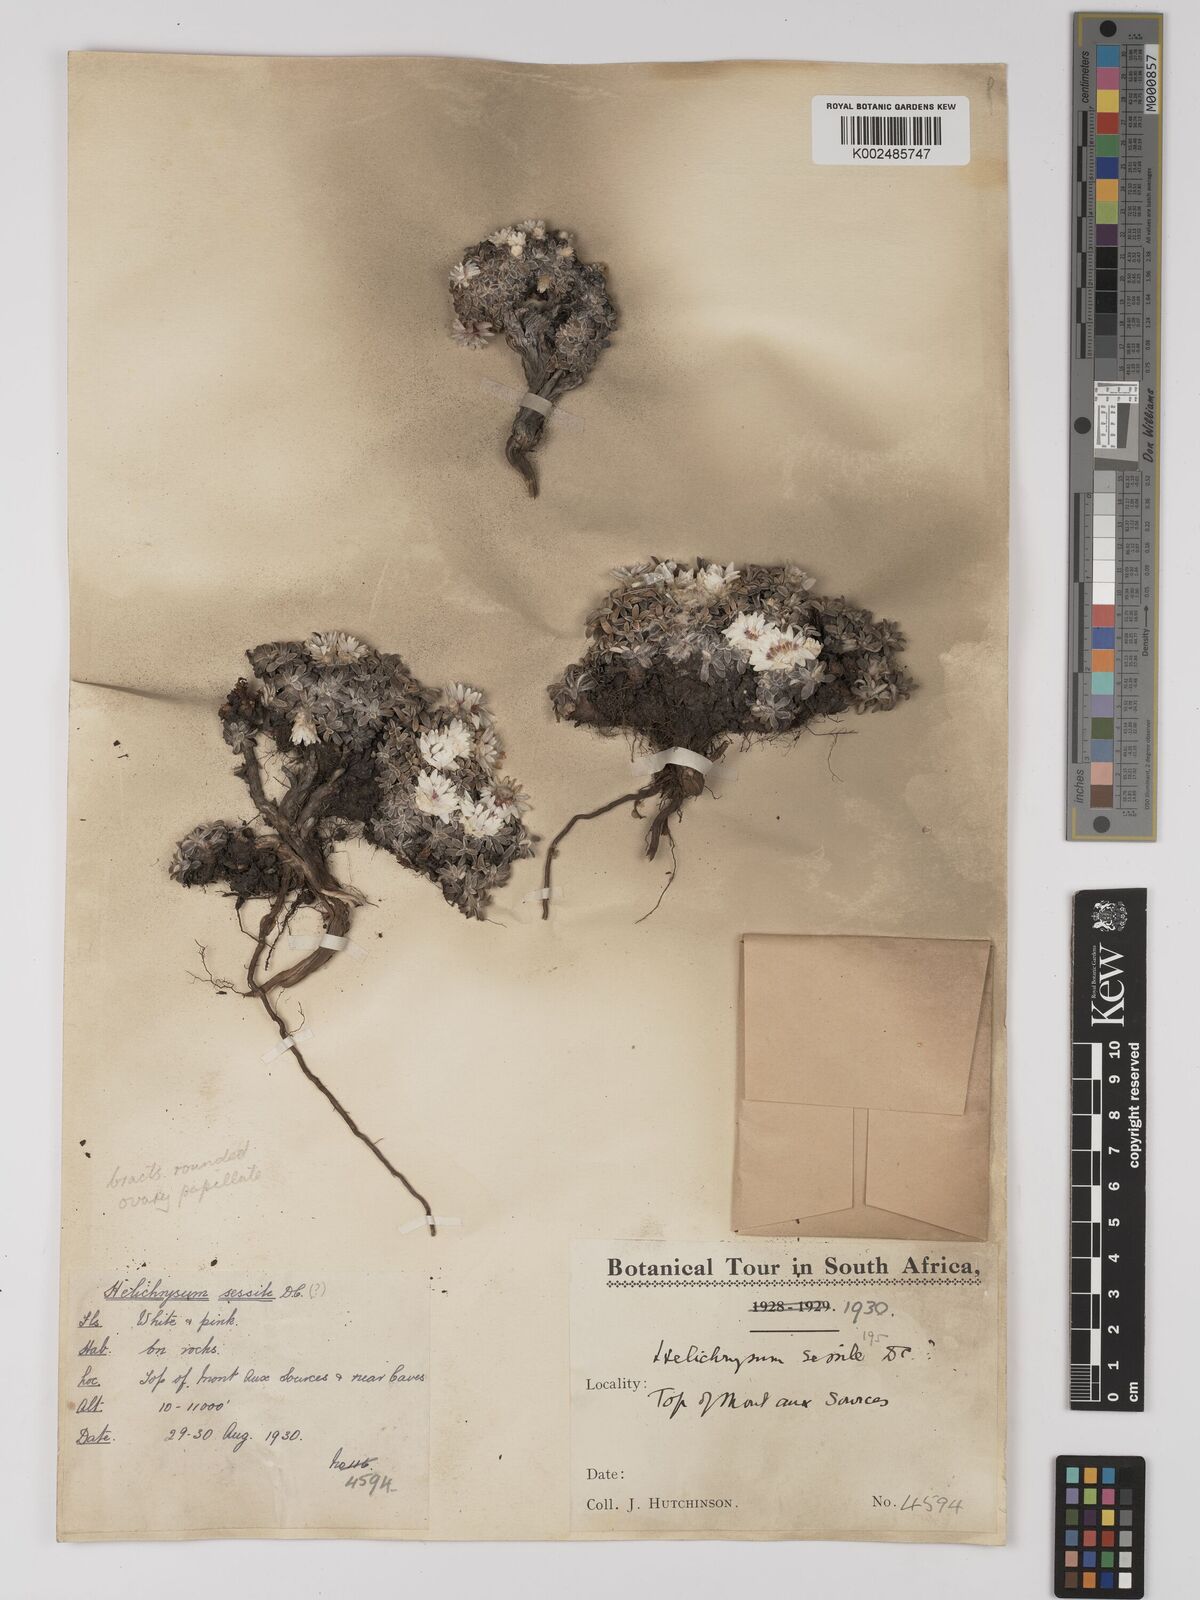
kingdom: Plantae
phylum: Tracheophyta
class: Magnoliopsida
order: Asterales
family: Asteraceae
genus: Helichrysum
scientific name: Helichrysum sessilioides
